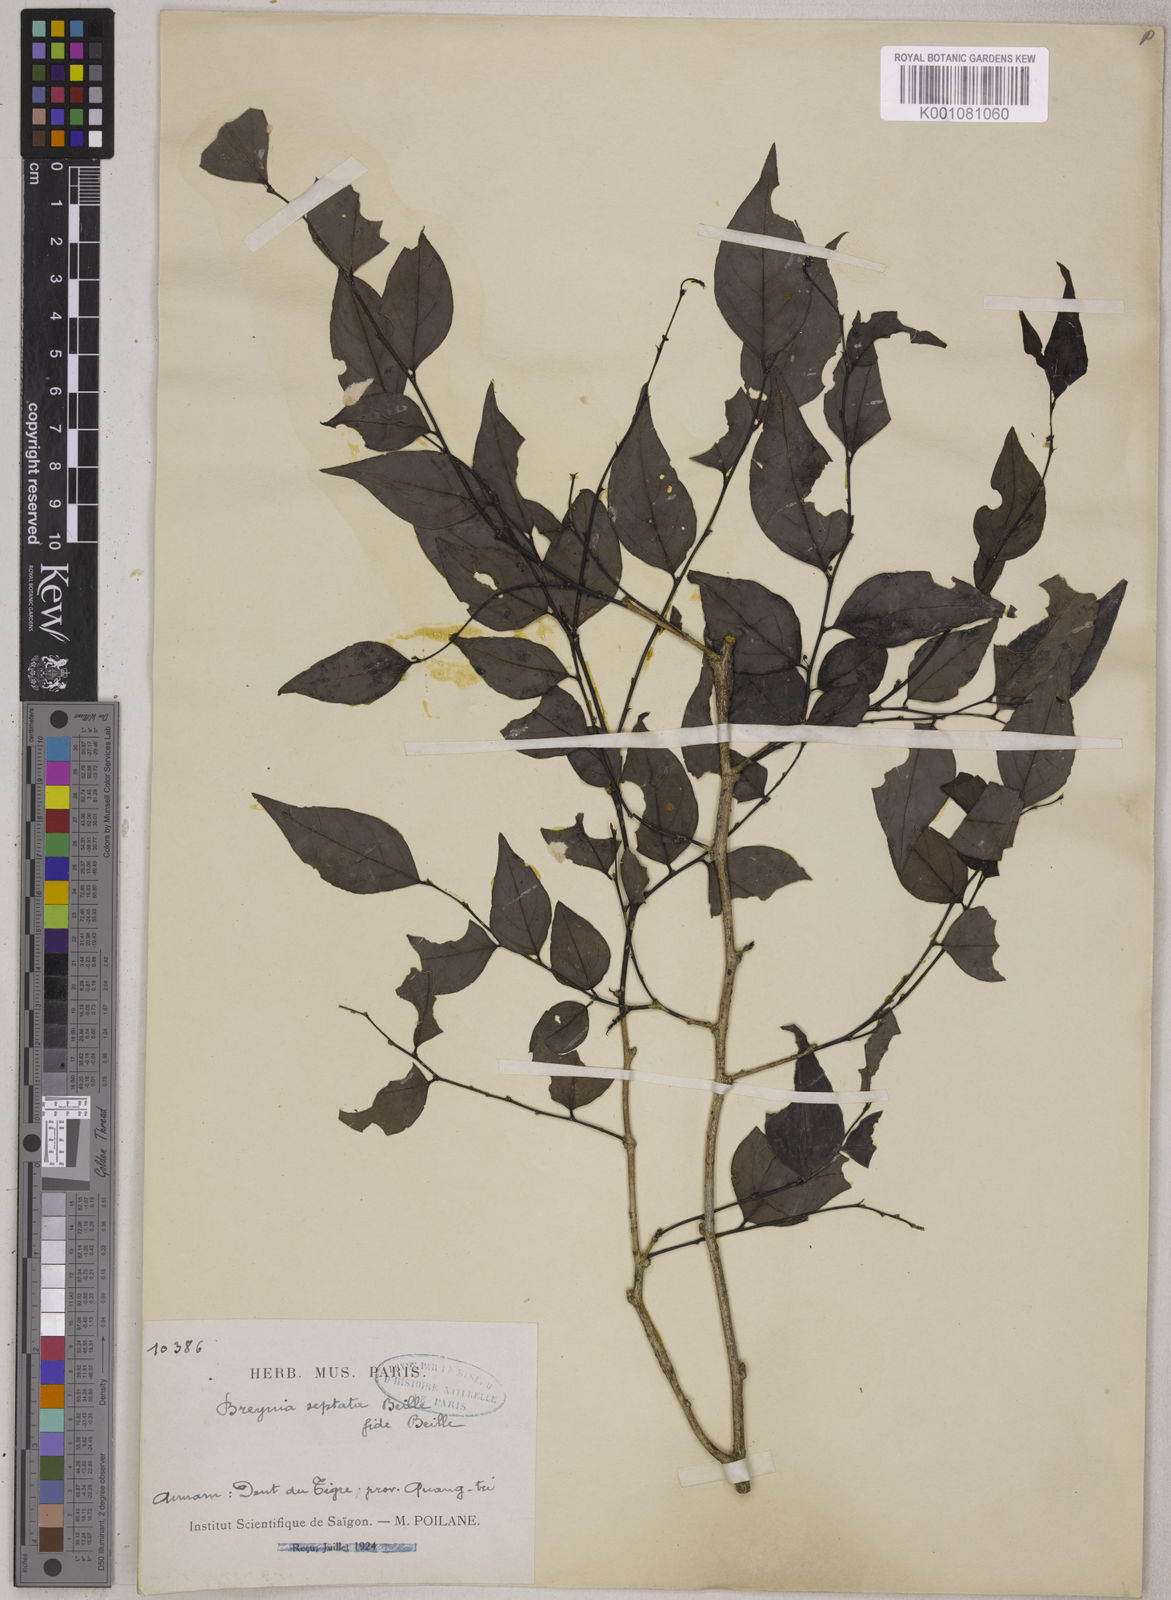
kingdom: Plantae
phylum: Tracheophyta
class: Magnoliopsida
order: Malpighiales
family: Phyllanthaceae
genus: Breynia
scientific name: Breynia septata
